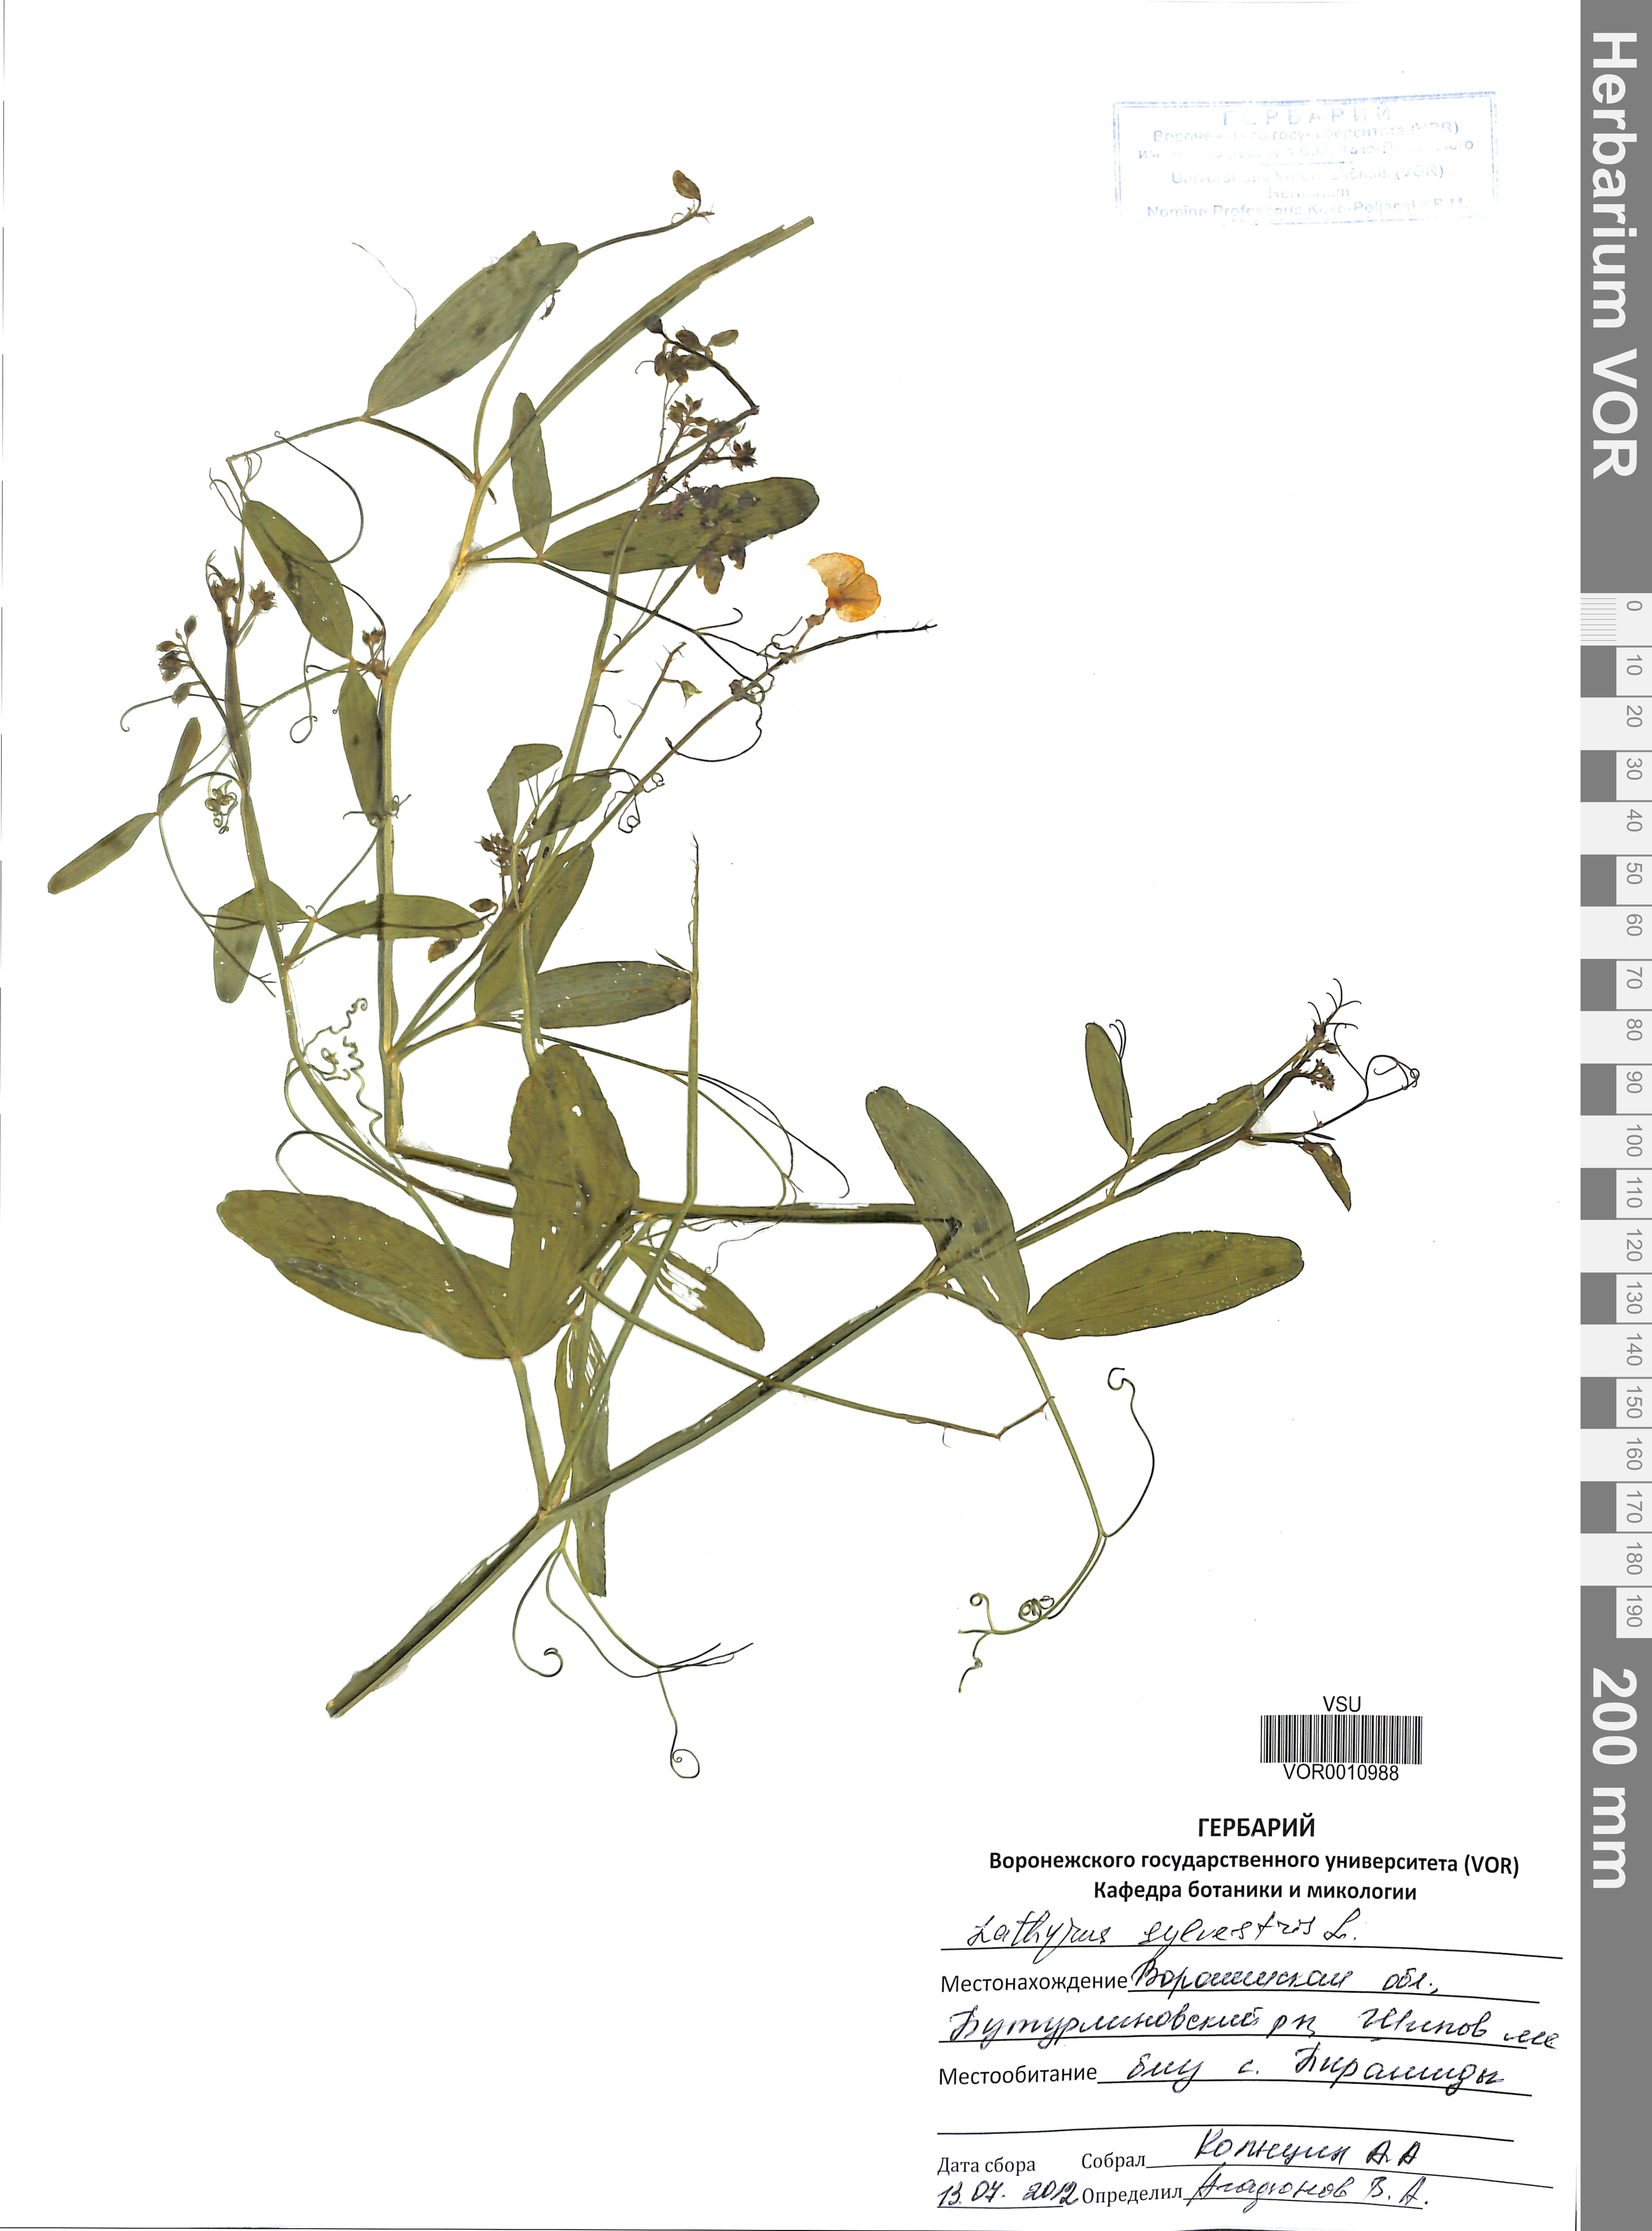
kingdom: Plantae
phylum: Tracheophyta
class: Magnoliopsida
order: Fabales
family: Fabaceae
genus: Lathyrus
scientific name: Lathyrus sylvestris
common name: Flat pea
